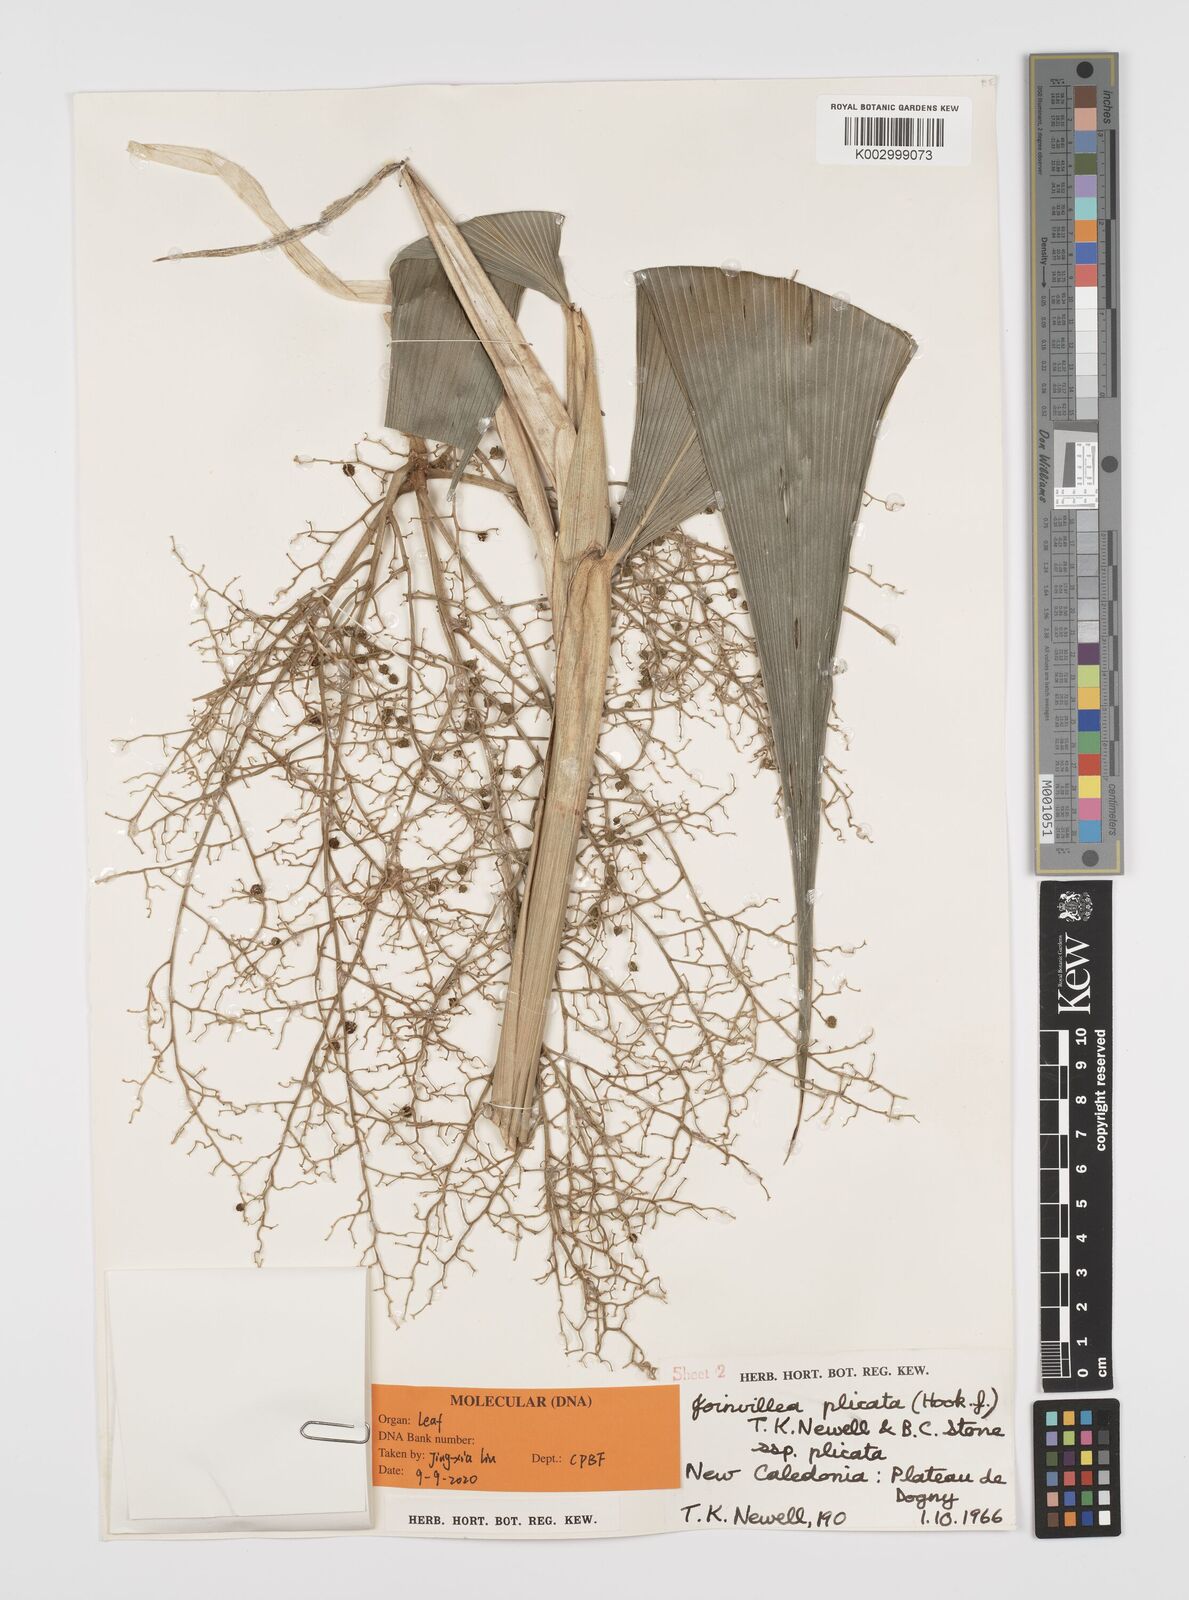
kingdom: Plantae
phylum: Tracheophyta
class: Liliopsida
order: Poales
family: Joinvilleaceae
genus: Joinvillea
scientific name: Joinvillea plicata
